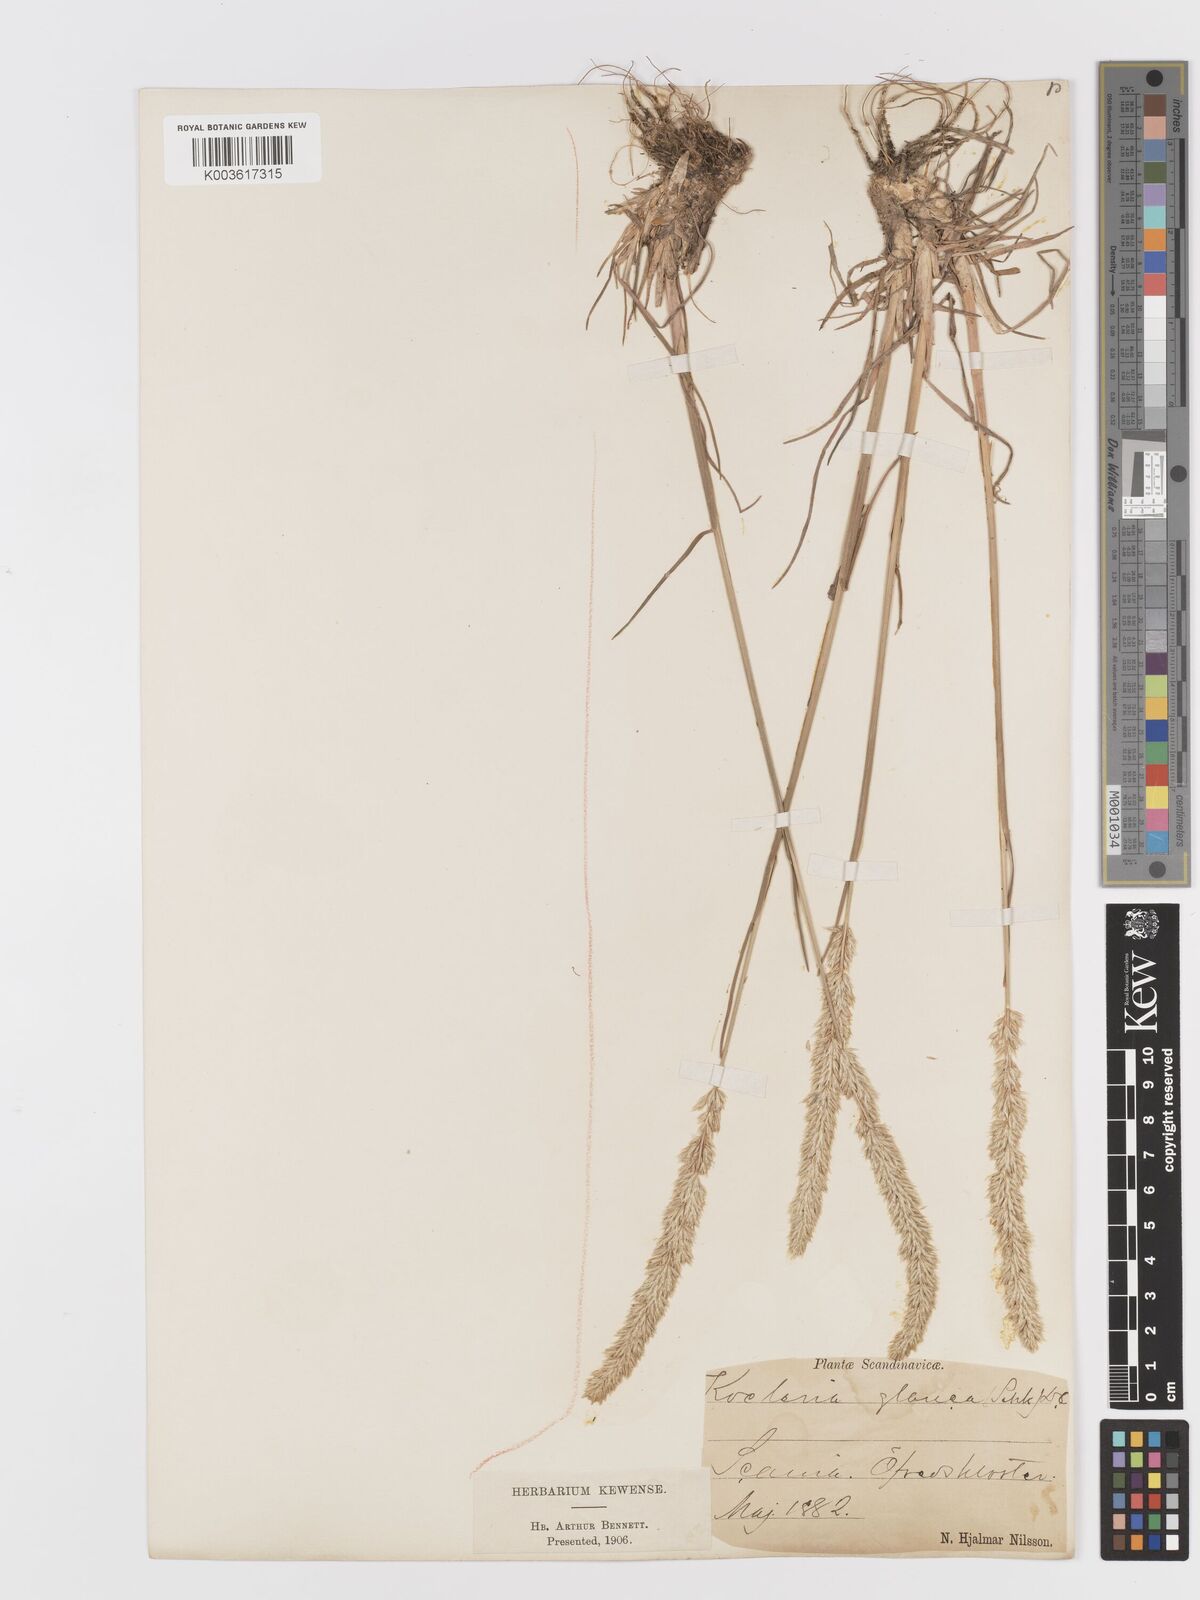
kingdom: Plantae
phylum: Tracheophyta
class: Liliopsida
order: Poales
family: Poaceae
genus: Koeleria
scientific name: Koeleria glauca
